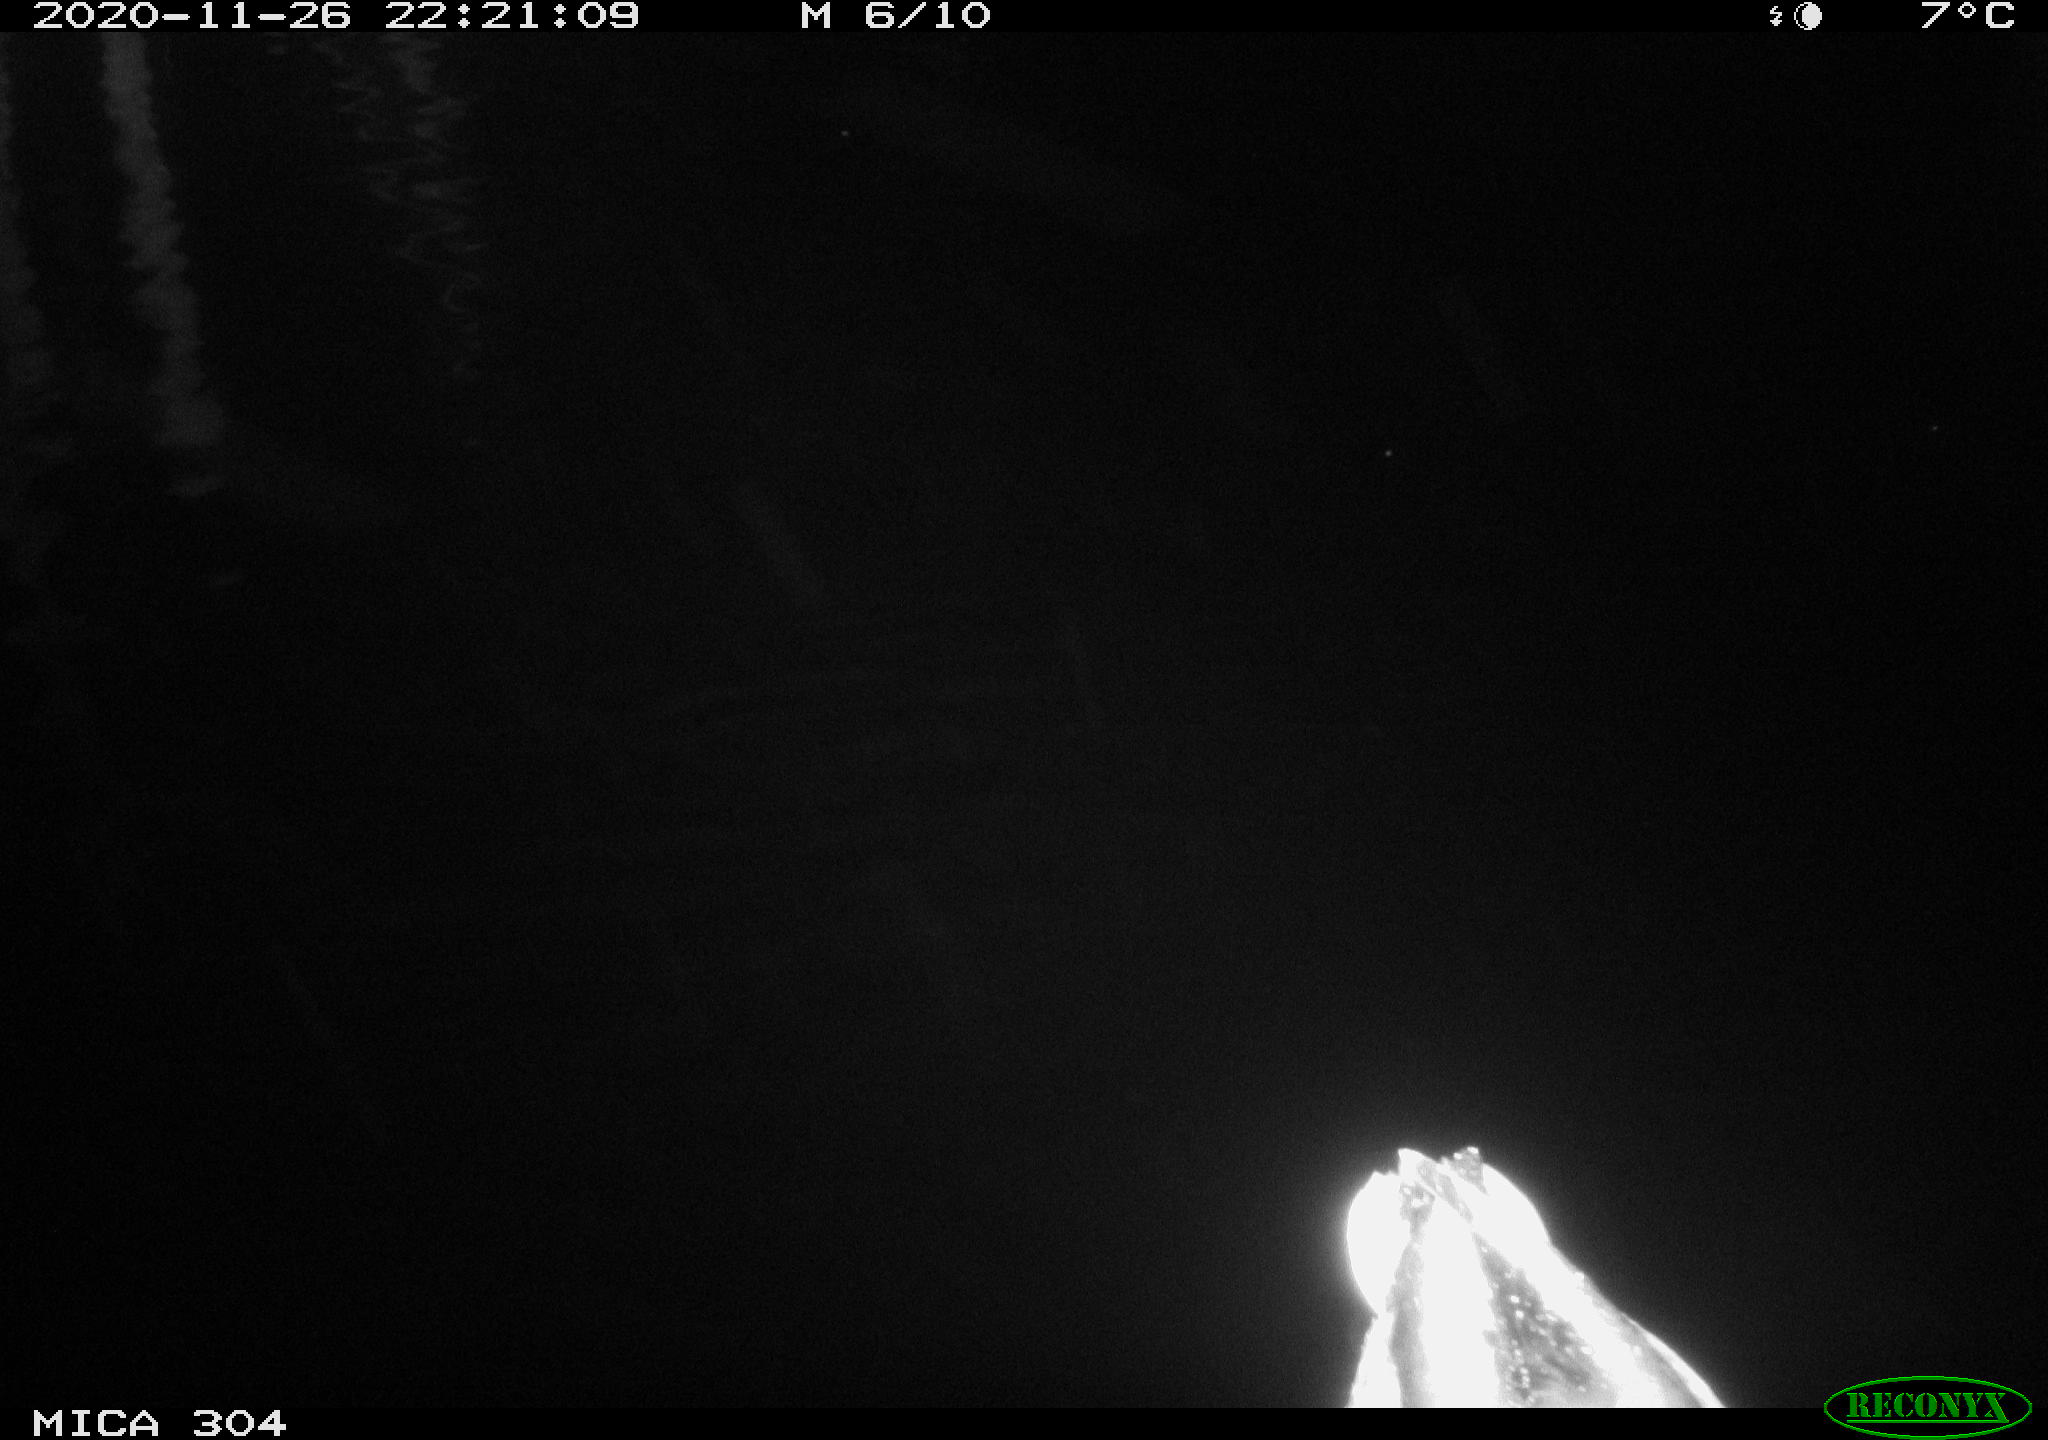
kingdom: Animalia
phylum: Chordata
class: Aves
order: Anseriformes
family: Anatidae
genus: Anas
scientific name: Anas platyrhynchos
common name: Mallard
